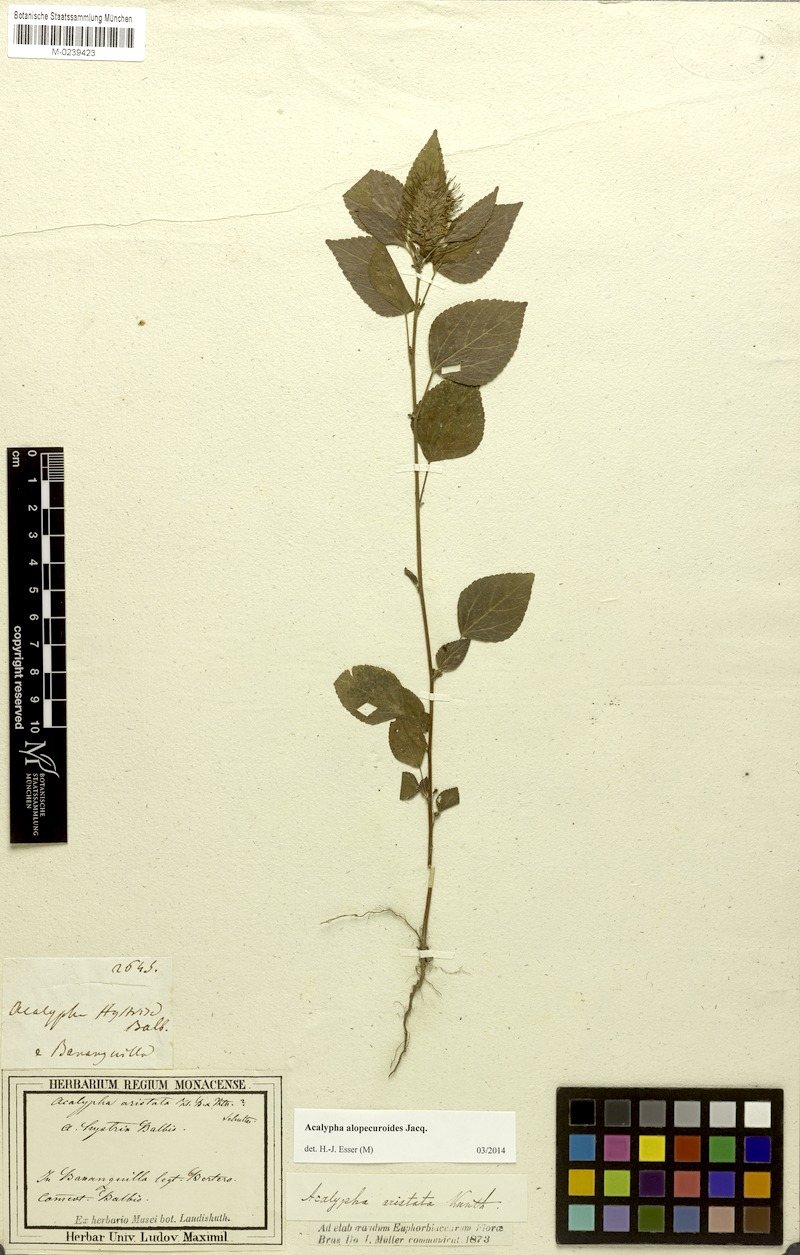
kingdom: Plantae
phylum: Tracheophyta
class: Magnoliopsida
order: Malpighiales
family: Euphorbiaceae
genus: Acalypha
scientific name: Acalypha alopecuroides
